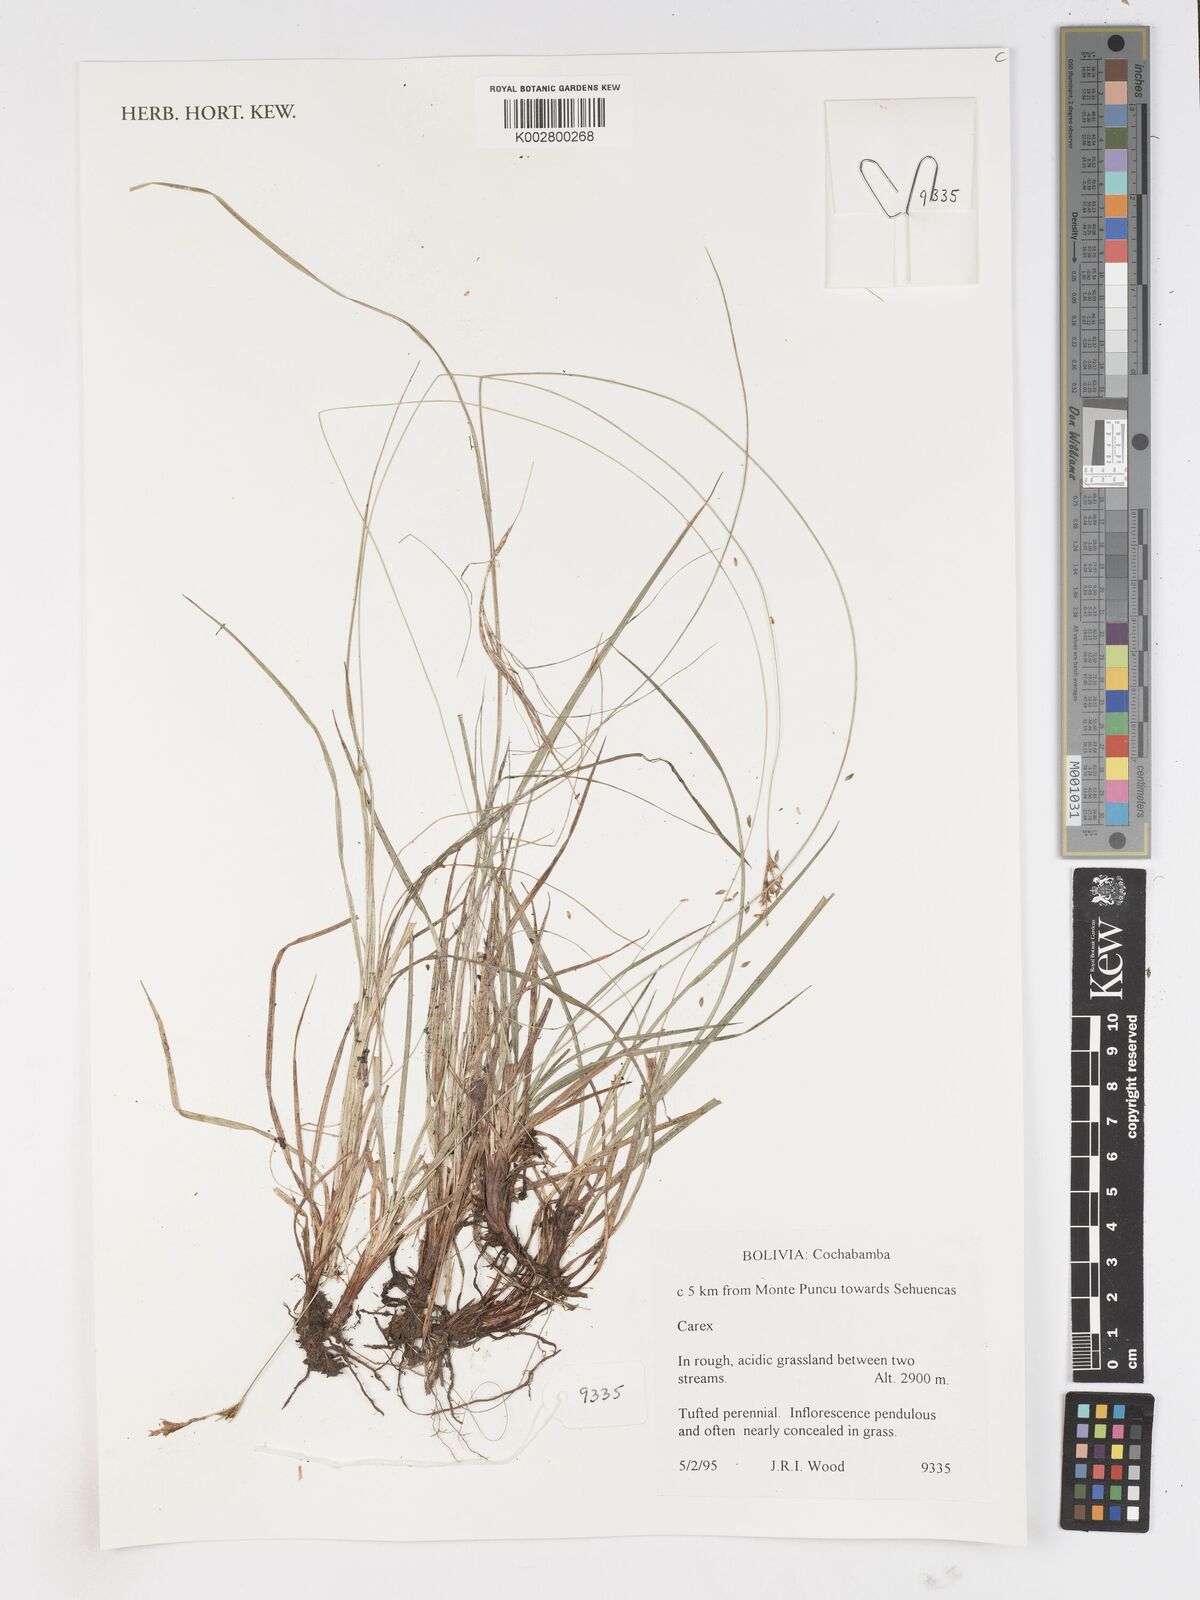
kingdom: Plantae
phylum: Tracheophyta
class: Liliopsida
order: Poales
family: Cyperaceae
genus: Carex
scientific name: Carex
